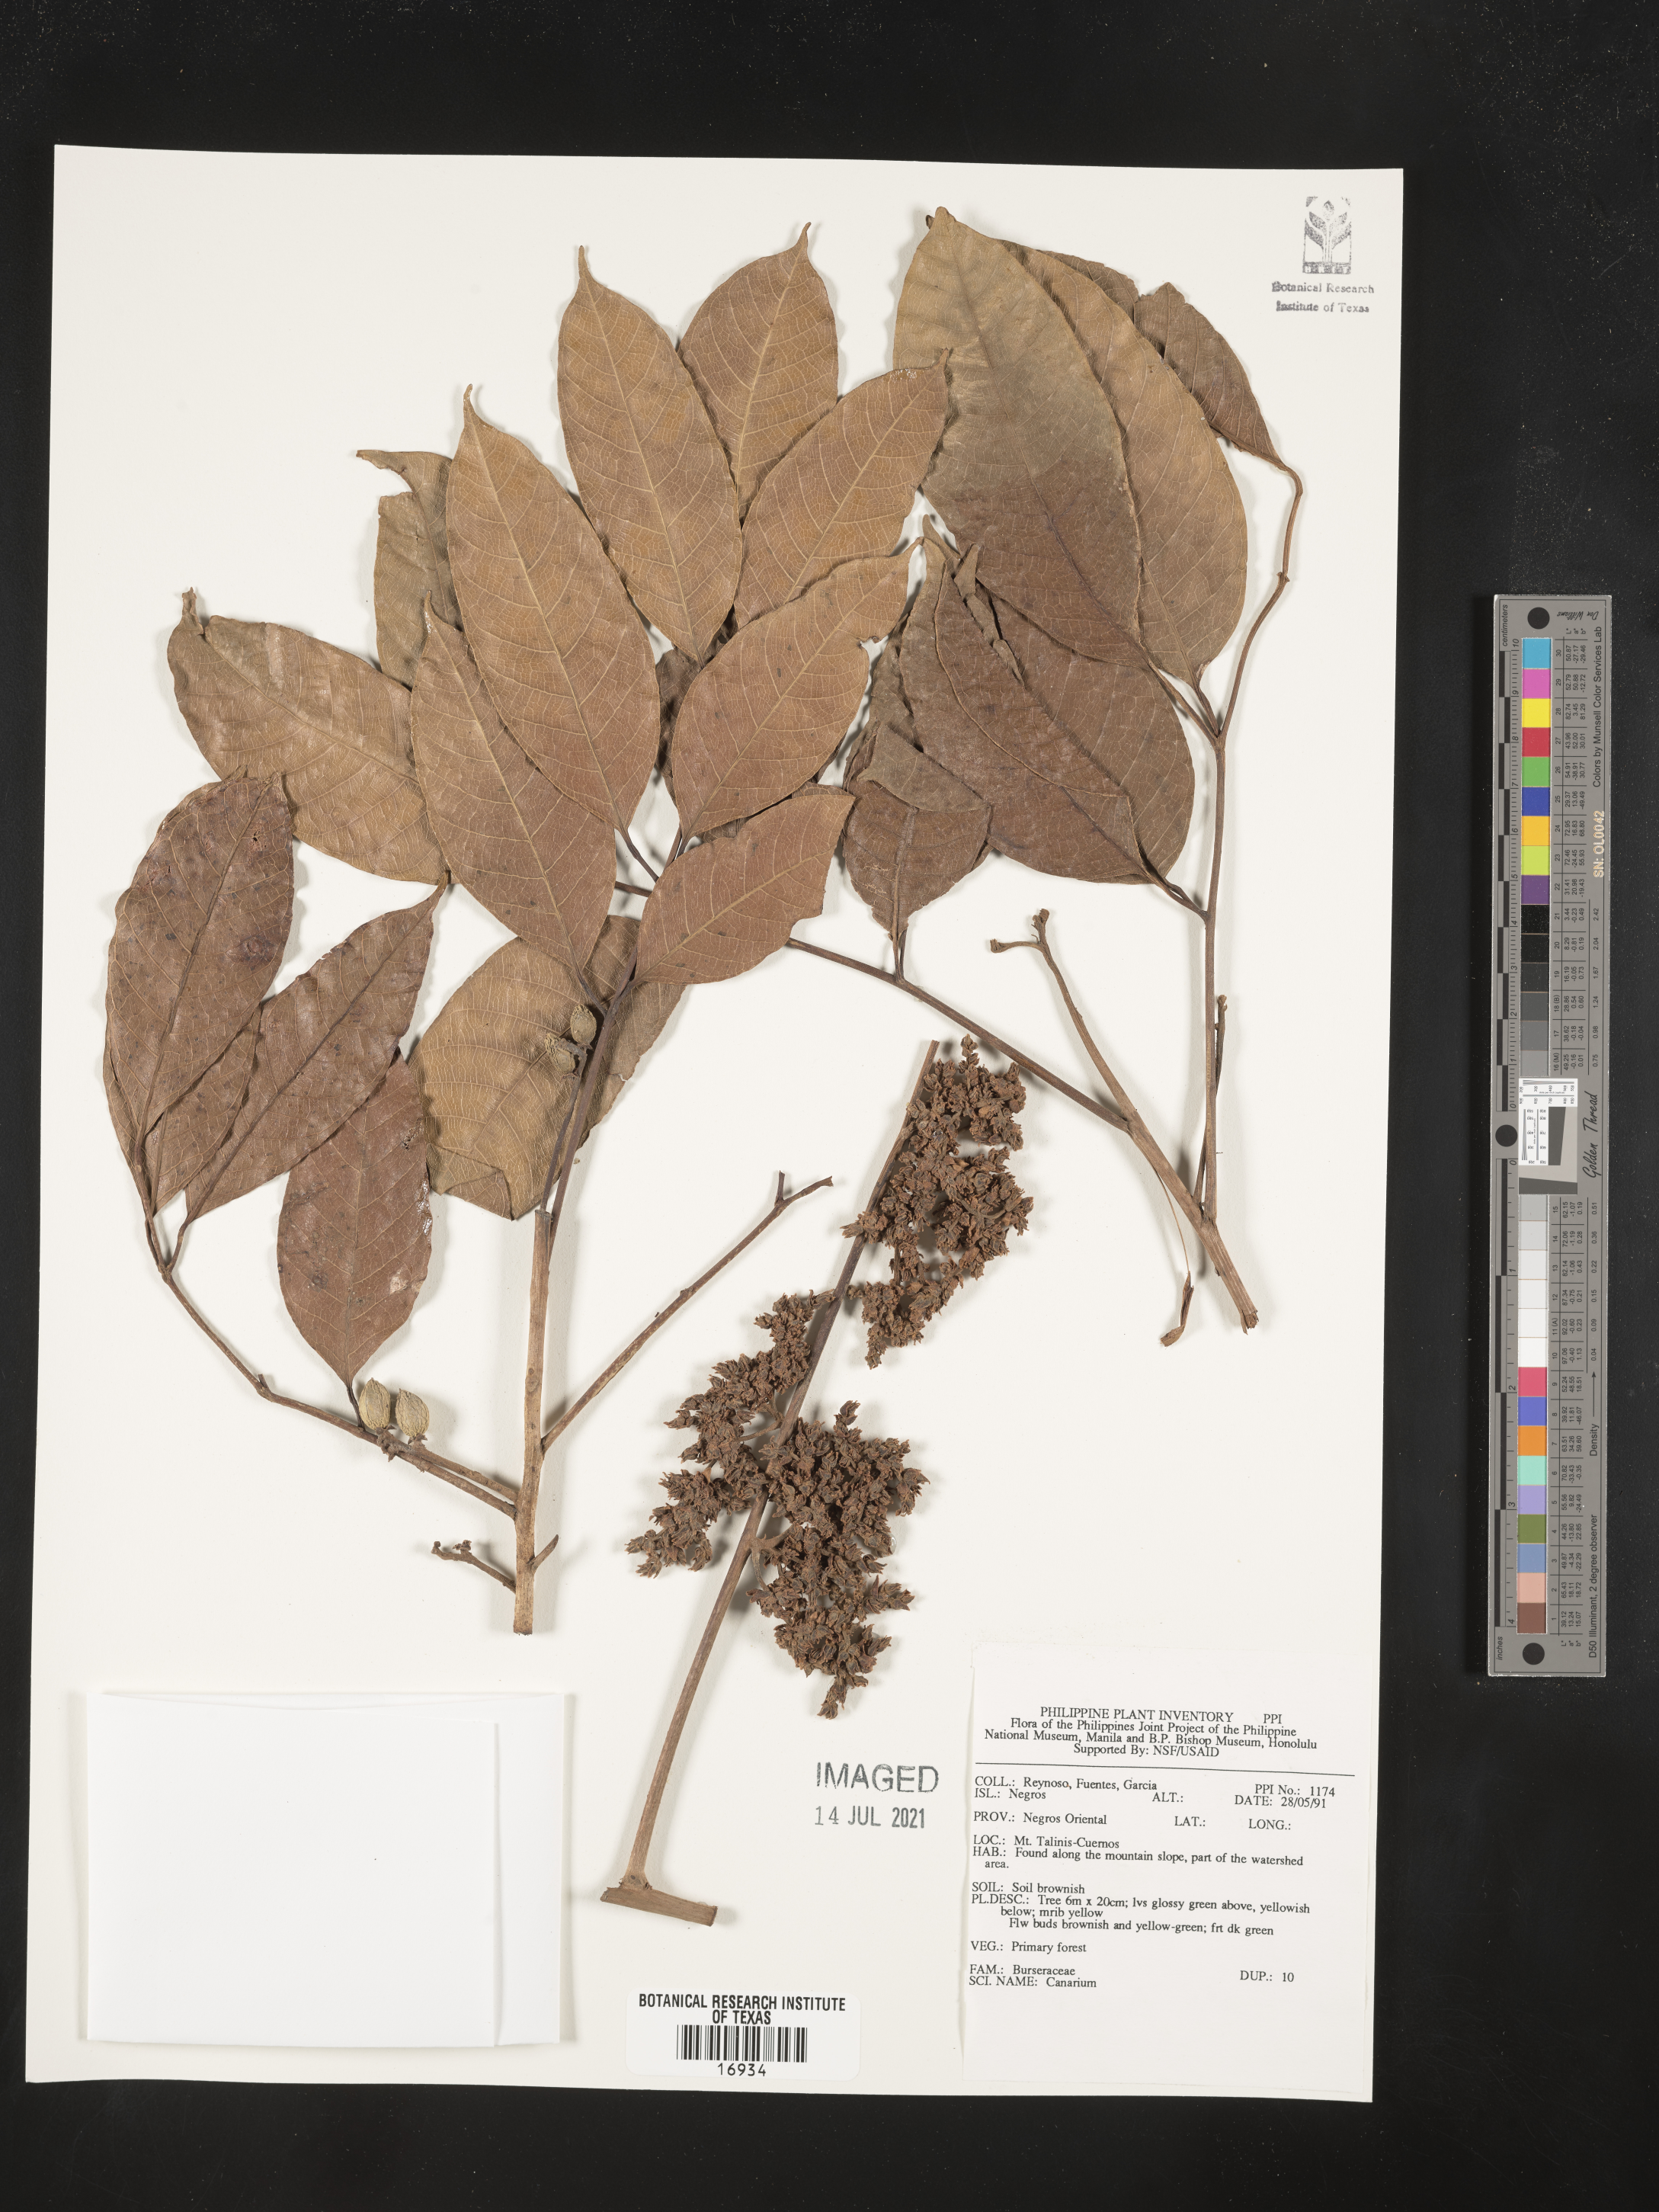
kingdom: Plantae
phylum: Tracheophyta
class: Magnoliopsida
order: Sapindales
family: Burseraceae
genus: Canarium
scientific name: Canarium
